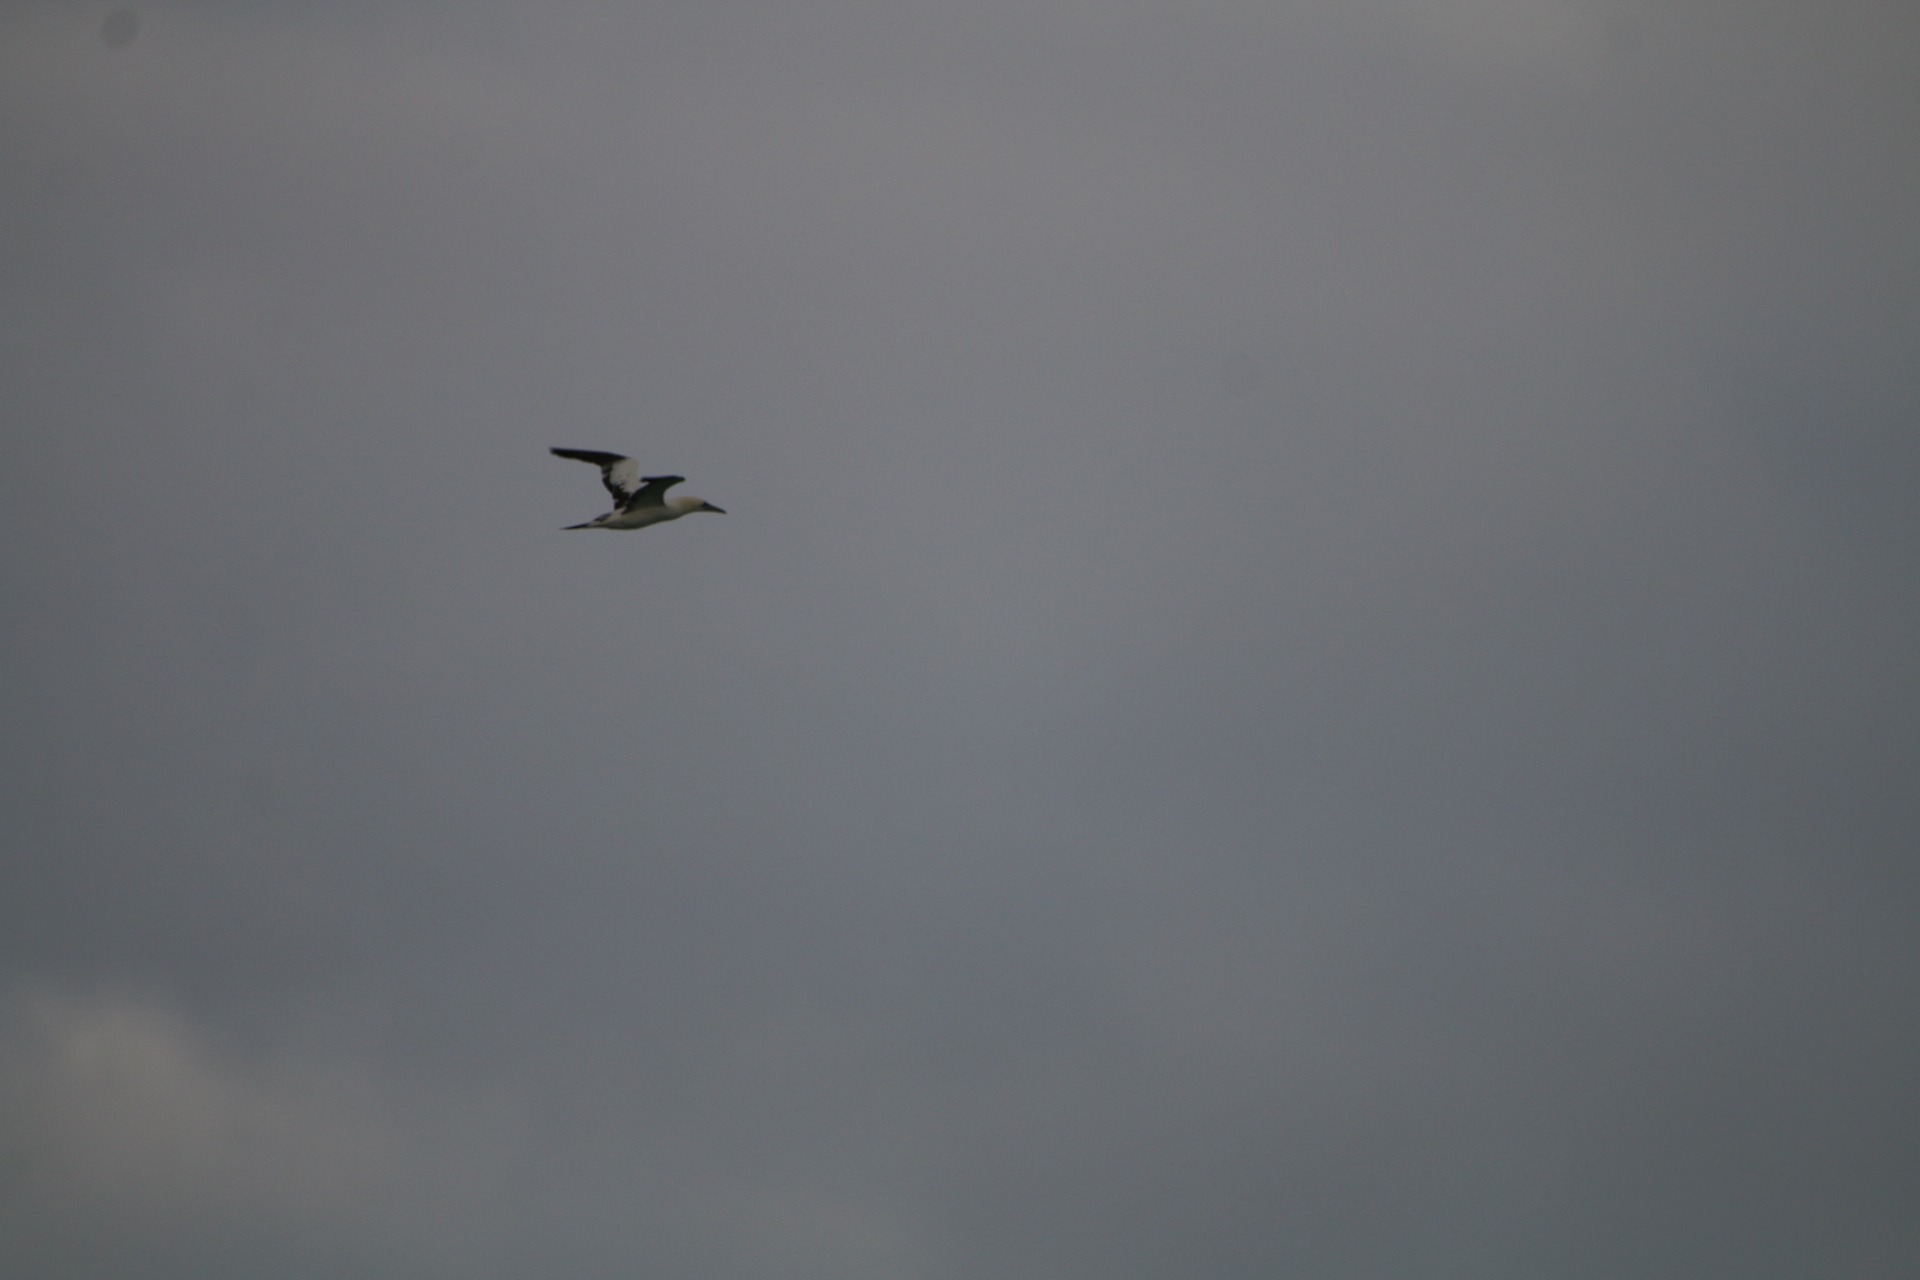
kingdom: Animalia
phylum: Chordata
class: Aves
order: Suliformes
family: Sulidae
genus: Morus
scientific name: Morus bassanus
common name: Sule
